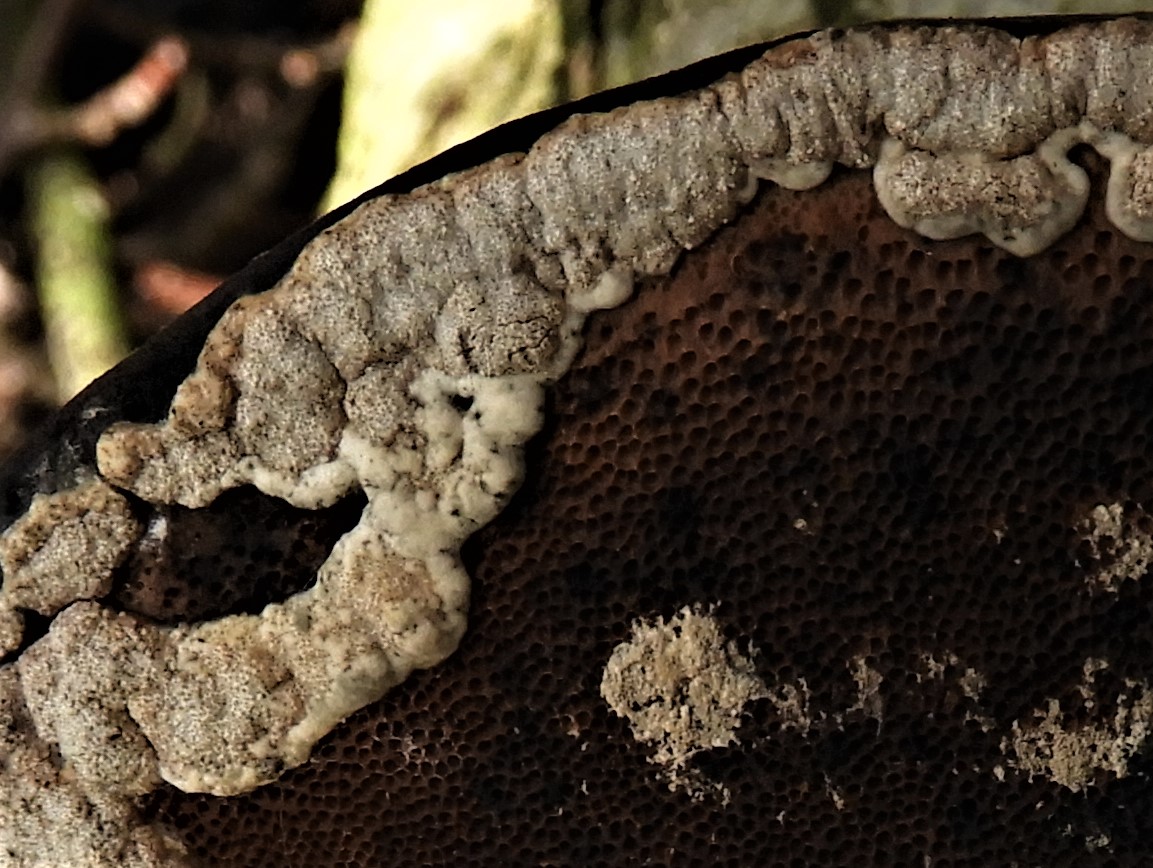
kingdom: Fungi
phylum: Ascomycota
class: Sordariomycetes
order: Hypocreales
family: Hypocreaceae
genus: Trichoderma
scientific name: Trichoderma pulvinatum
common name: snyltende kødkerne
